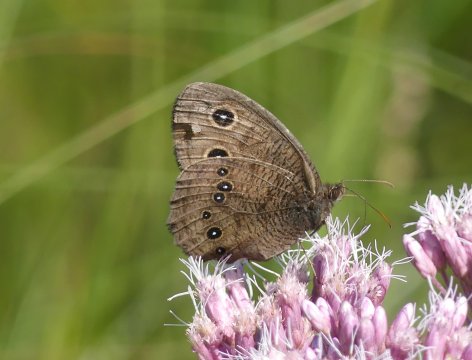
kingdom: Animalia
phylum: Arthropoda
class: Insecta
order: Lepidoptera
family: Nymphalidae
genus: Cercyonis
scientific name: Cercyonis pegala
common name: Common Wood-Nymph
